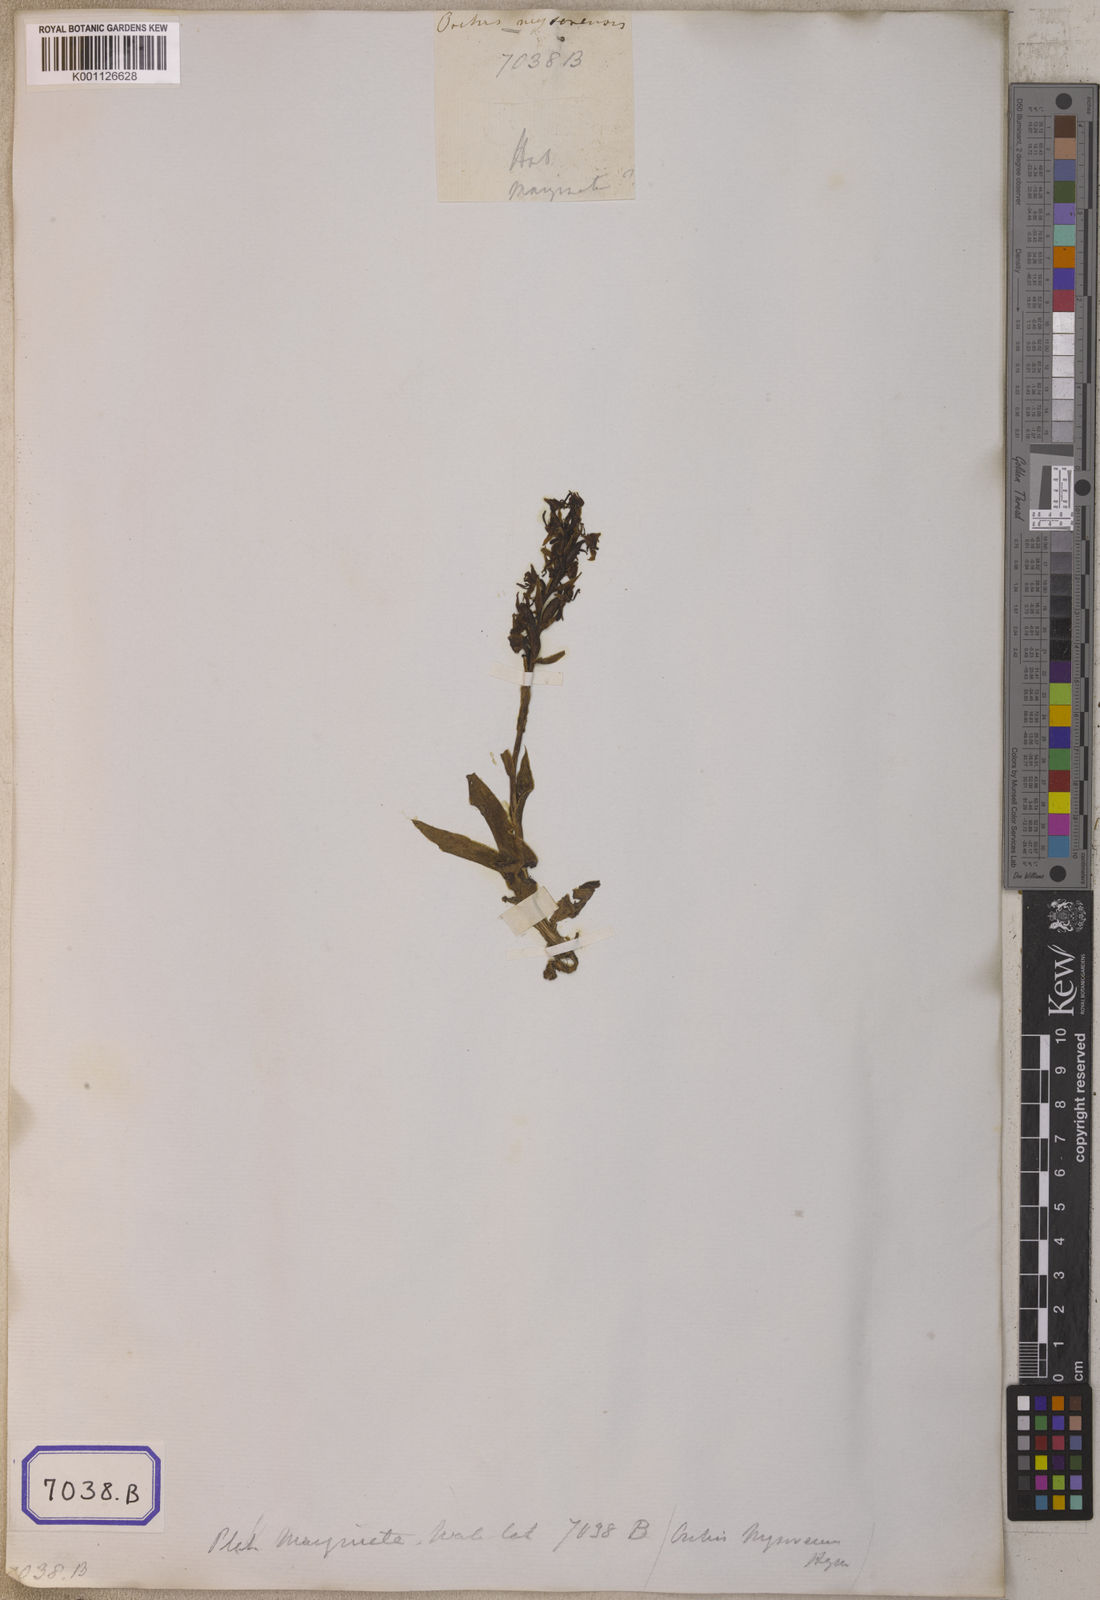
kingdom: Plantae
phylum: Tracheophyta
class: Liliopsida
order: Asparagales
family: Orchidaceae
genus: Platanthera
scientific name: Platanthera
